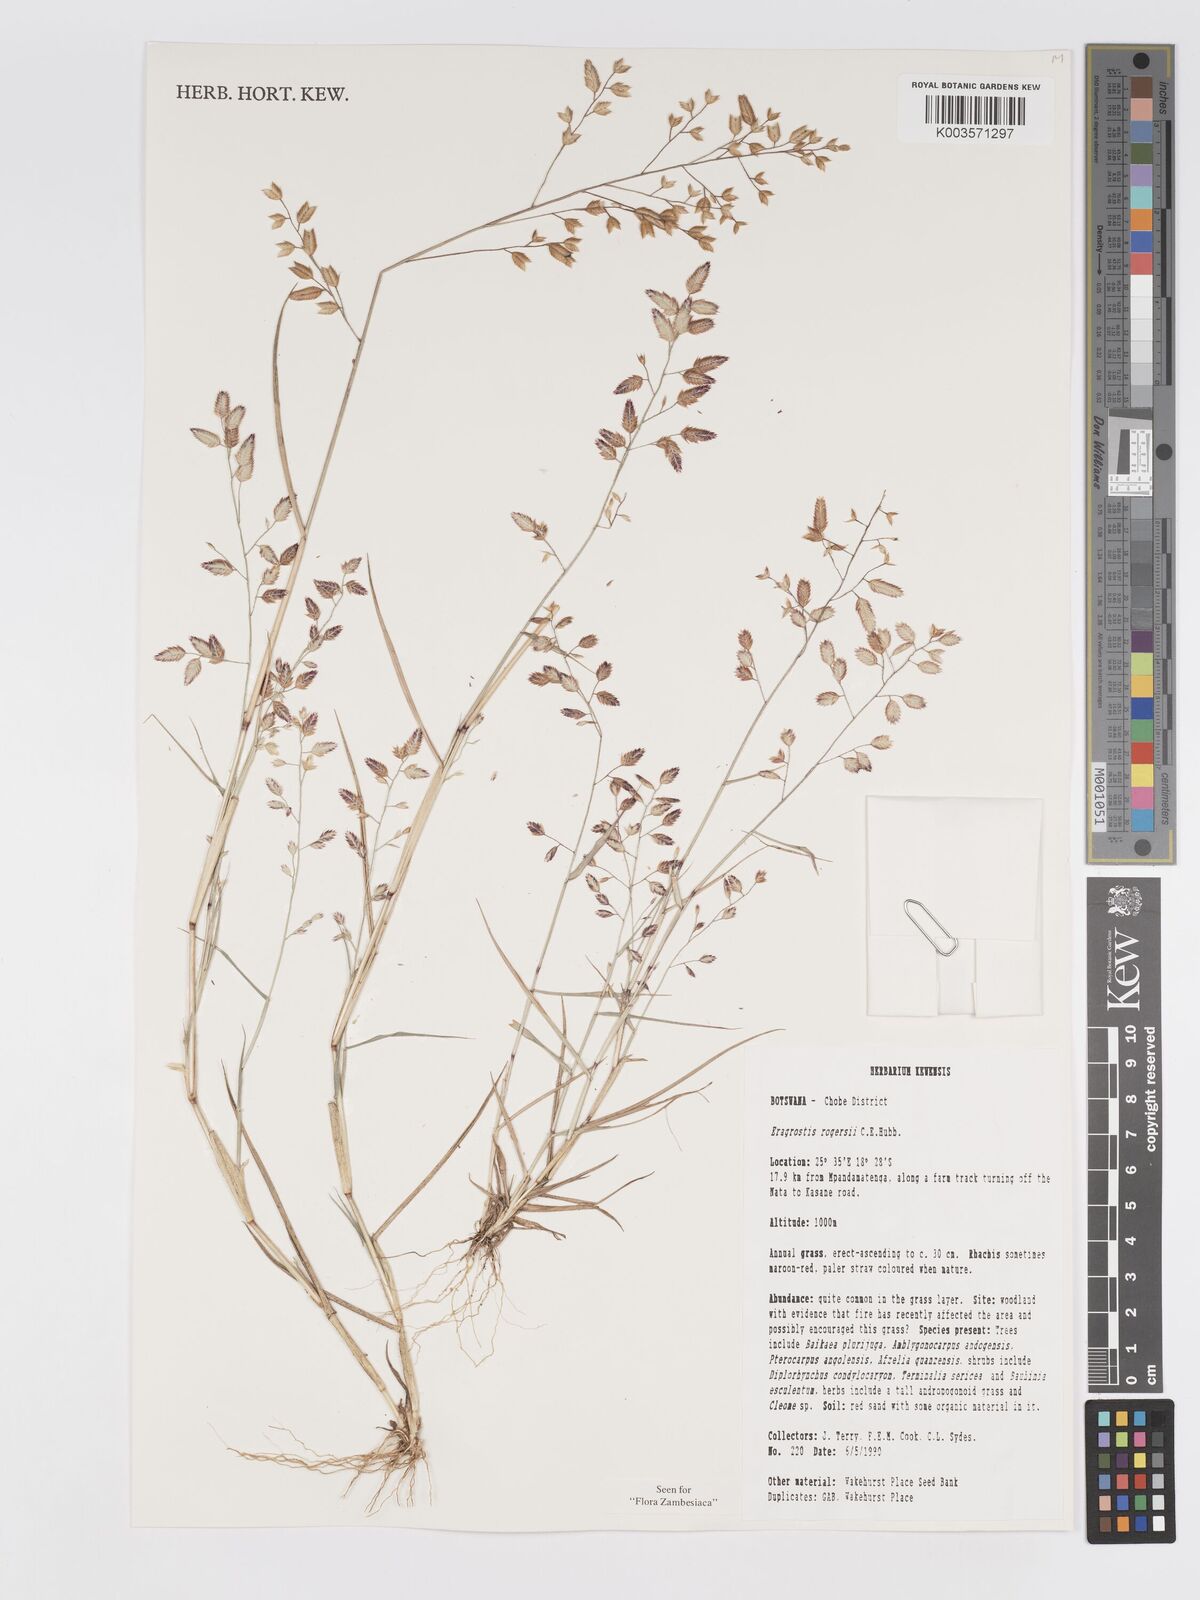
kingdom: Plantae
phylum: Tracheophyta
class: Liliopsida
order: Poales
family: Poaceae
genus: Eragrostis
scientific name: Eragrostis rogersii
